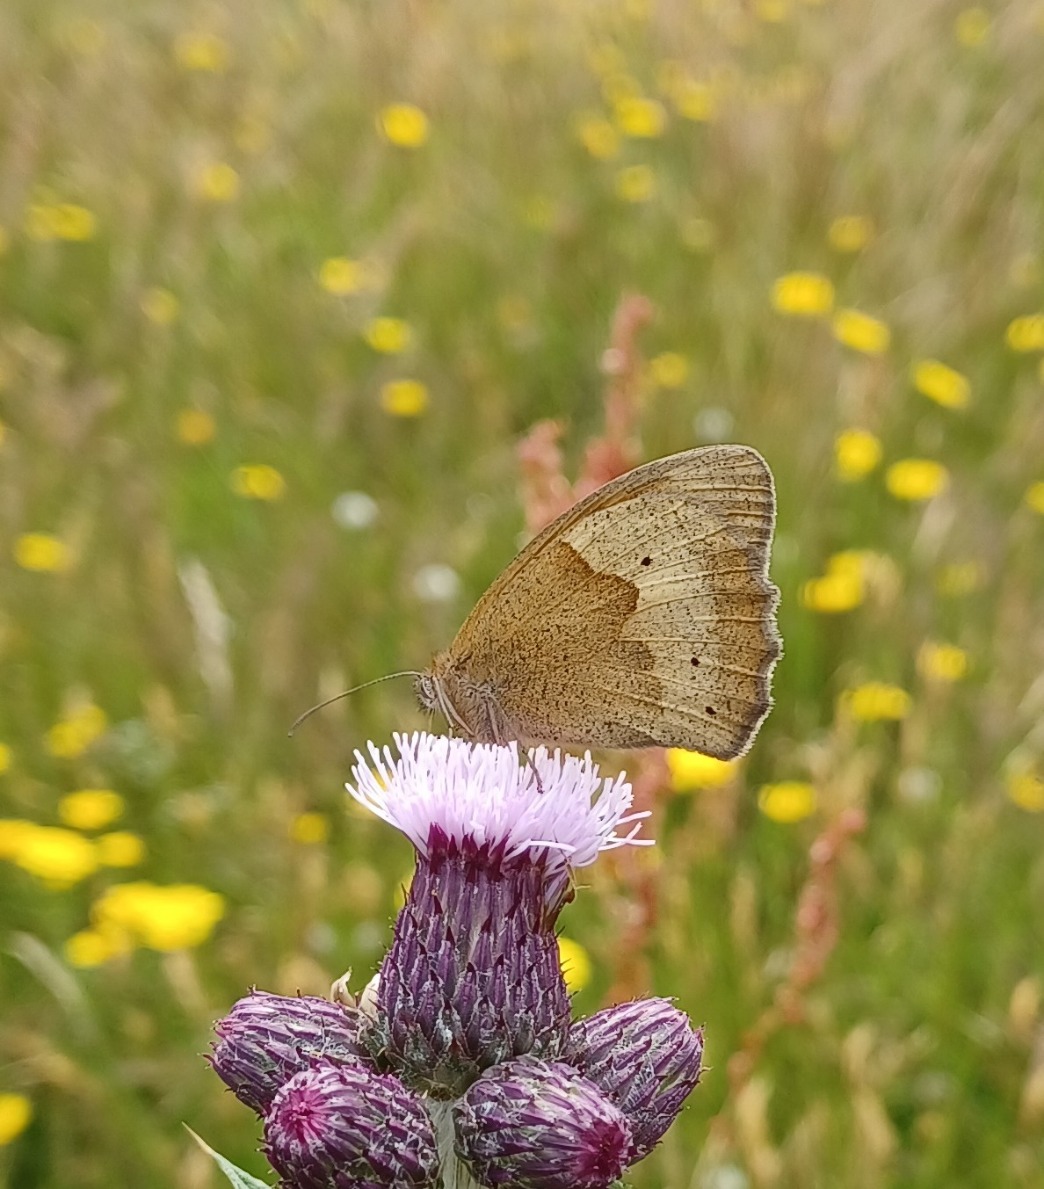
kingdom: Animalia
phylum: Arthropoda
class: Insecta
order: Lepidoptera
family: Nymphalidae
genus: Maniola
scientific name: Maniola jurtina
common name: Græsrandøje
